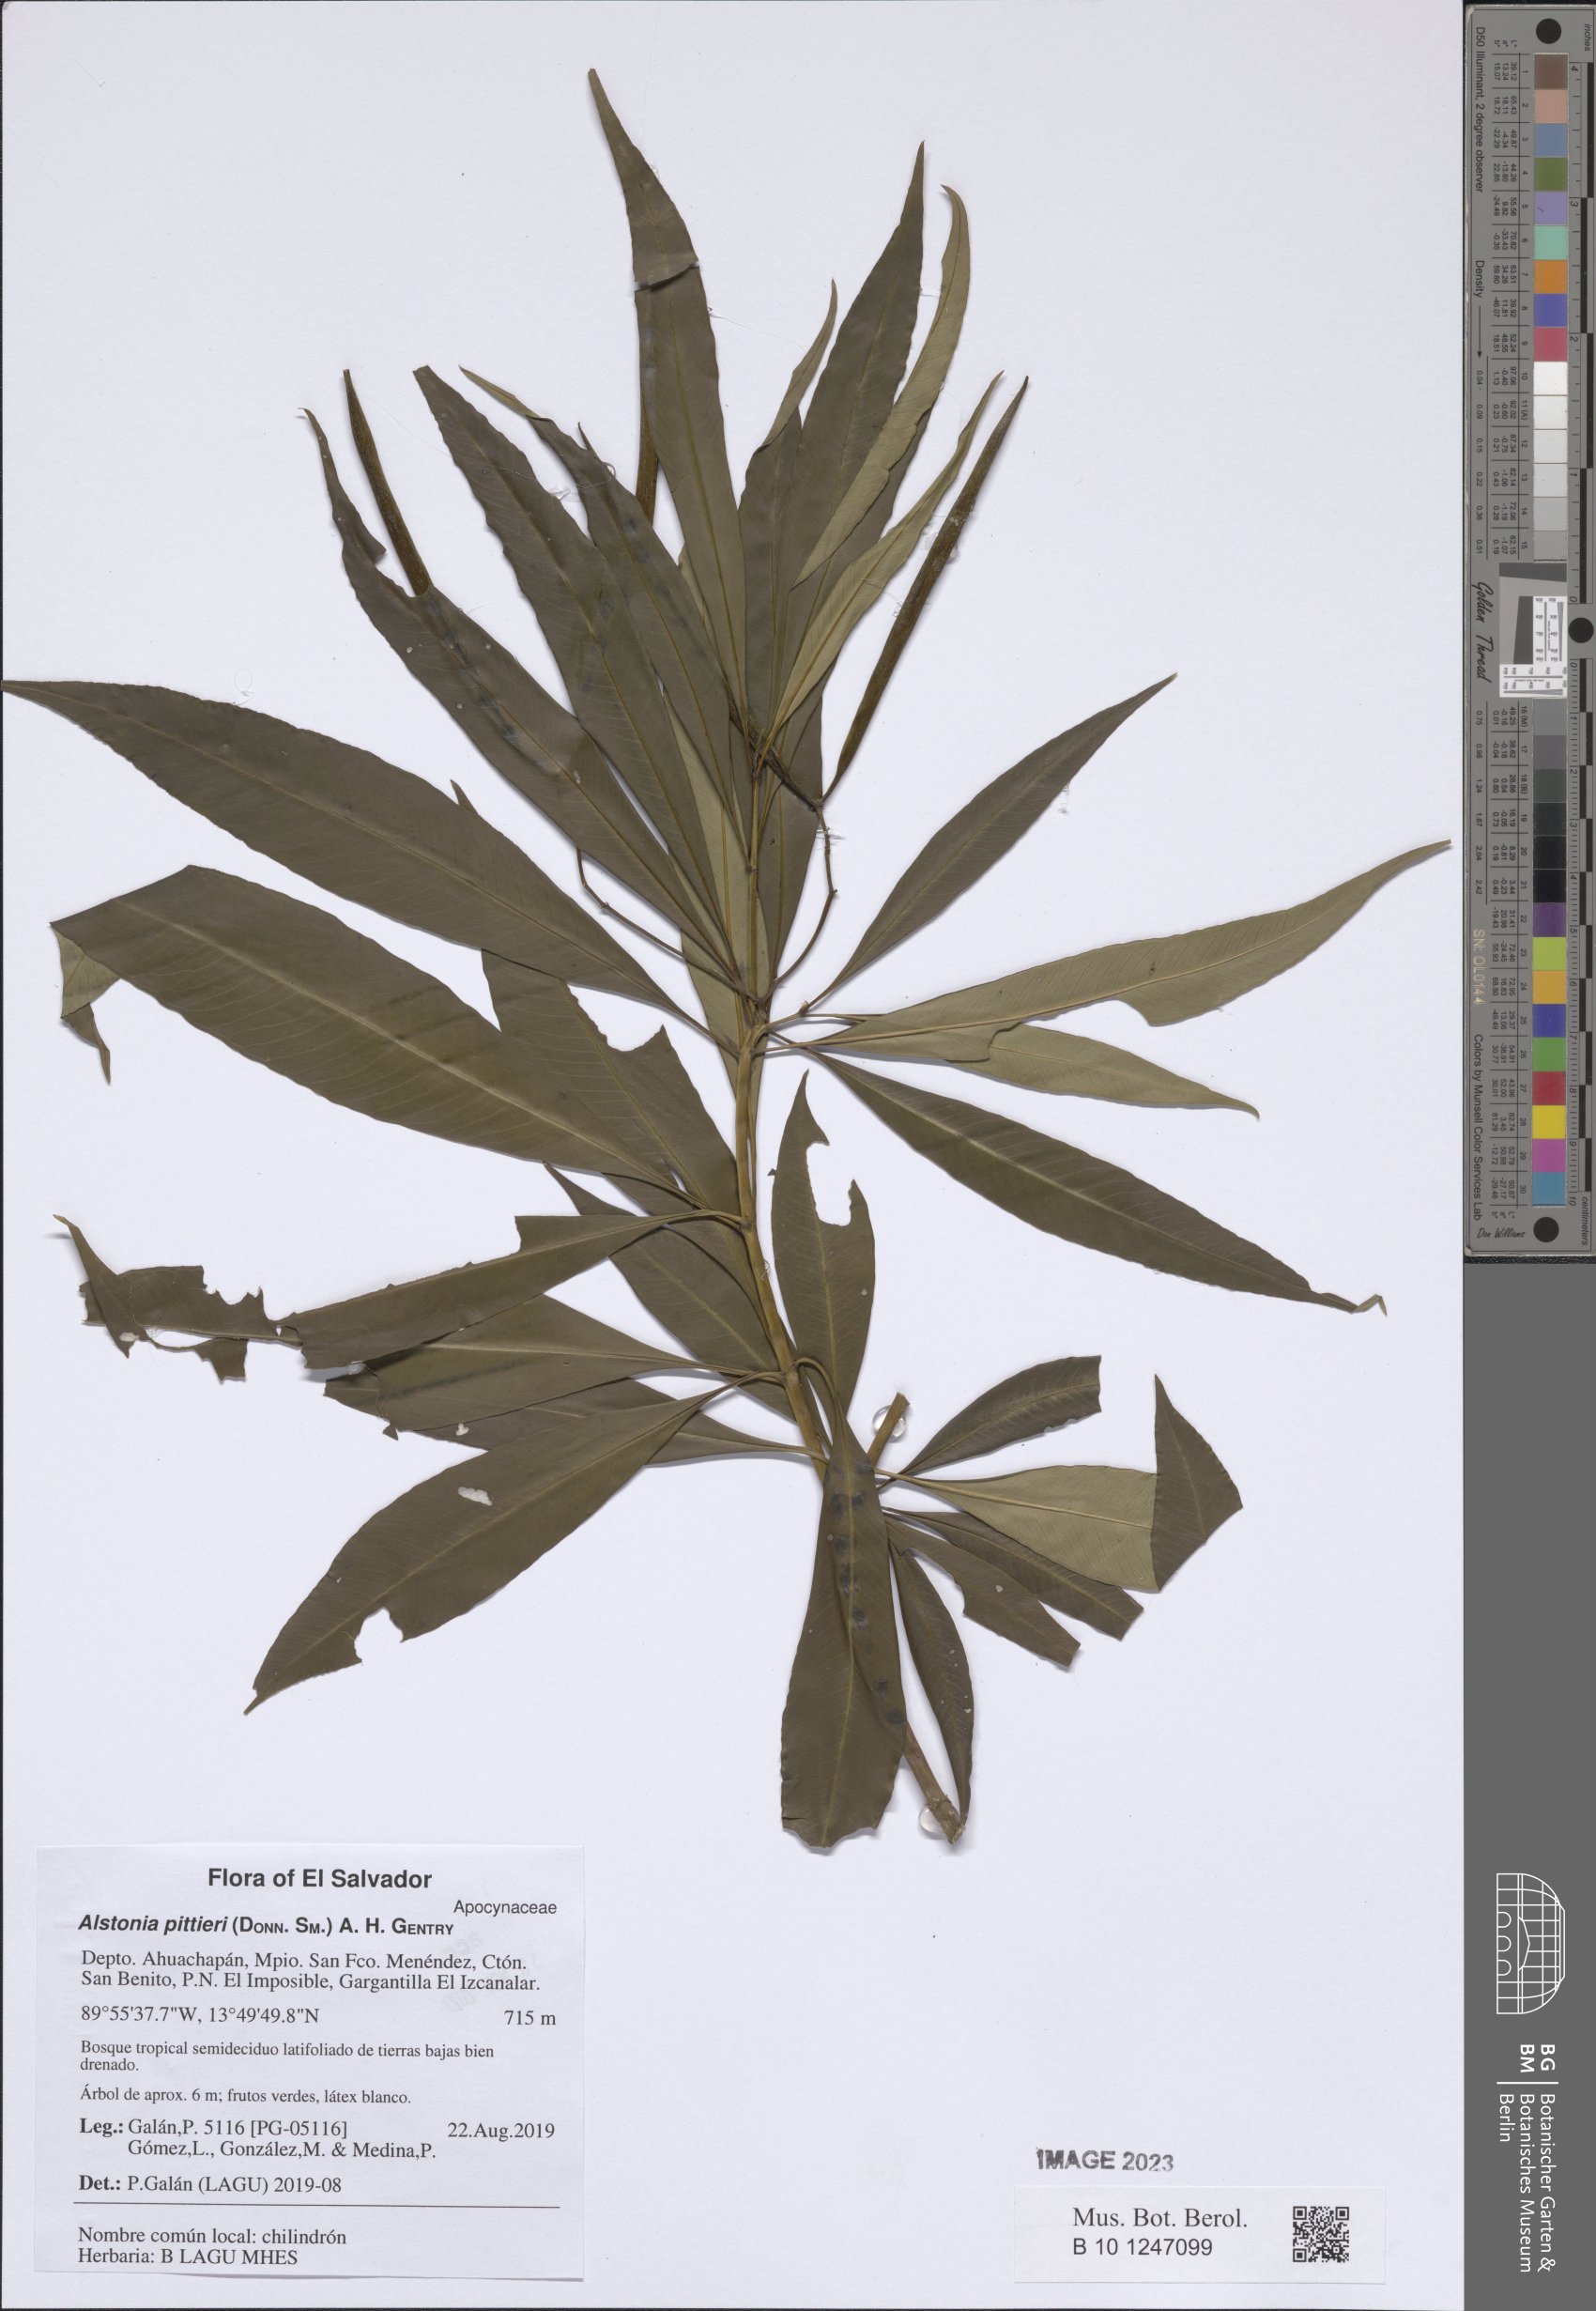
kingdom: Plantae
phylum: Tracheophyta
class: Magnoliopsida
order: Gentianales
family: Apocynaceae
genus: Tonduzia
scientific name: Tonduzia longifolia
